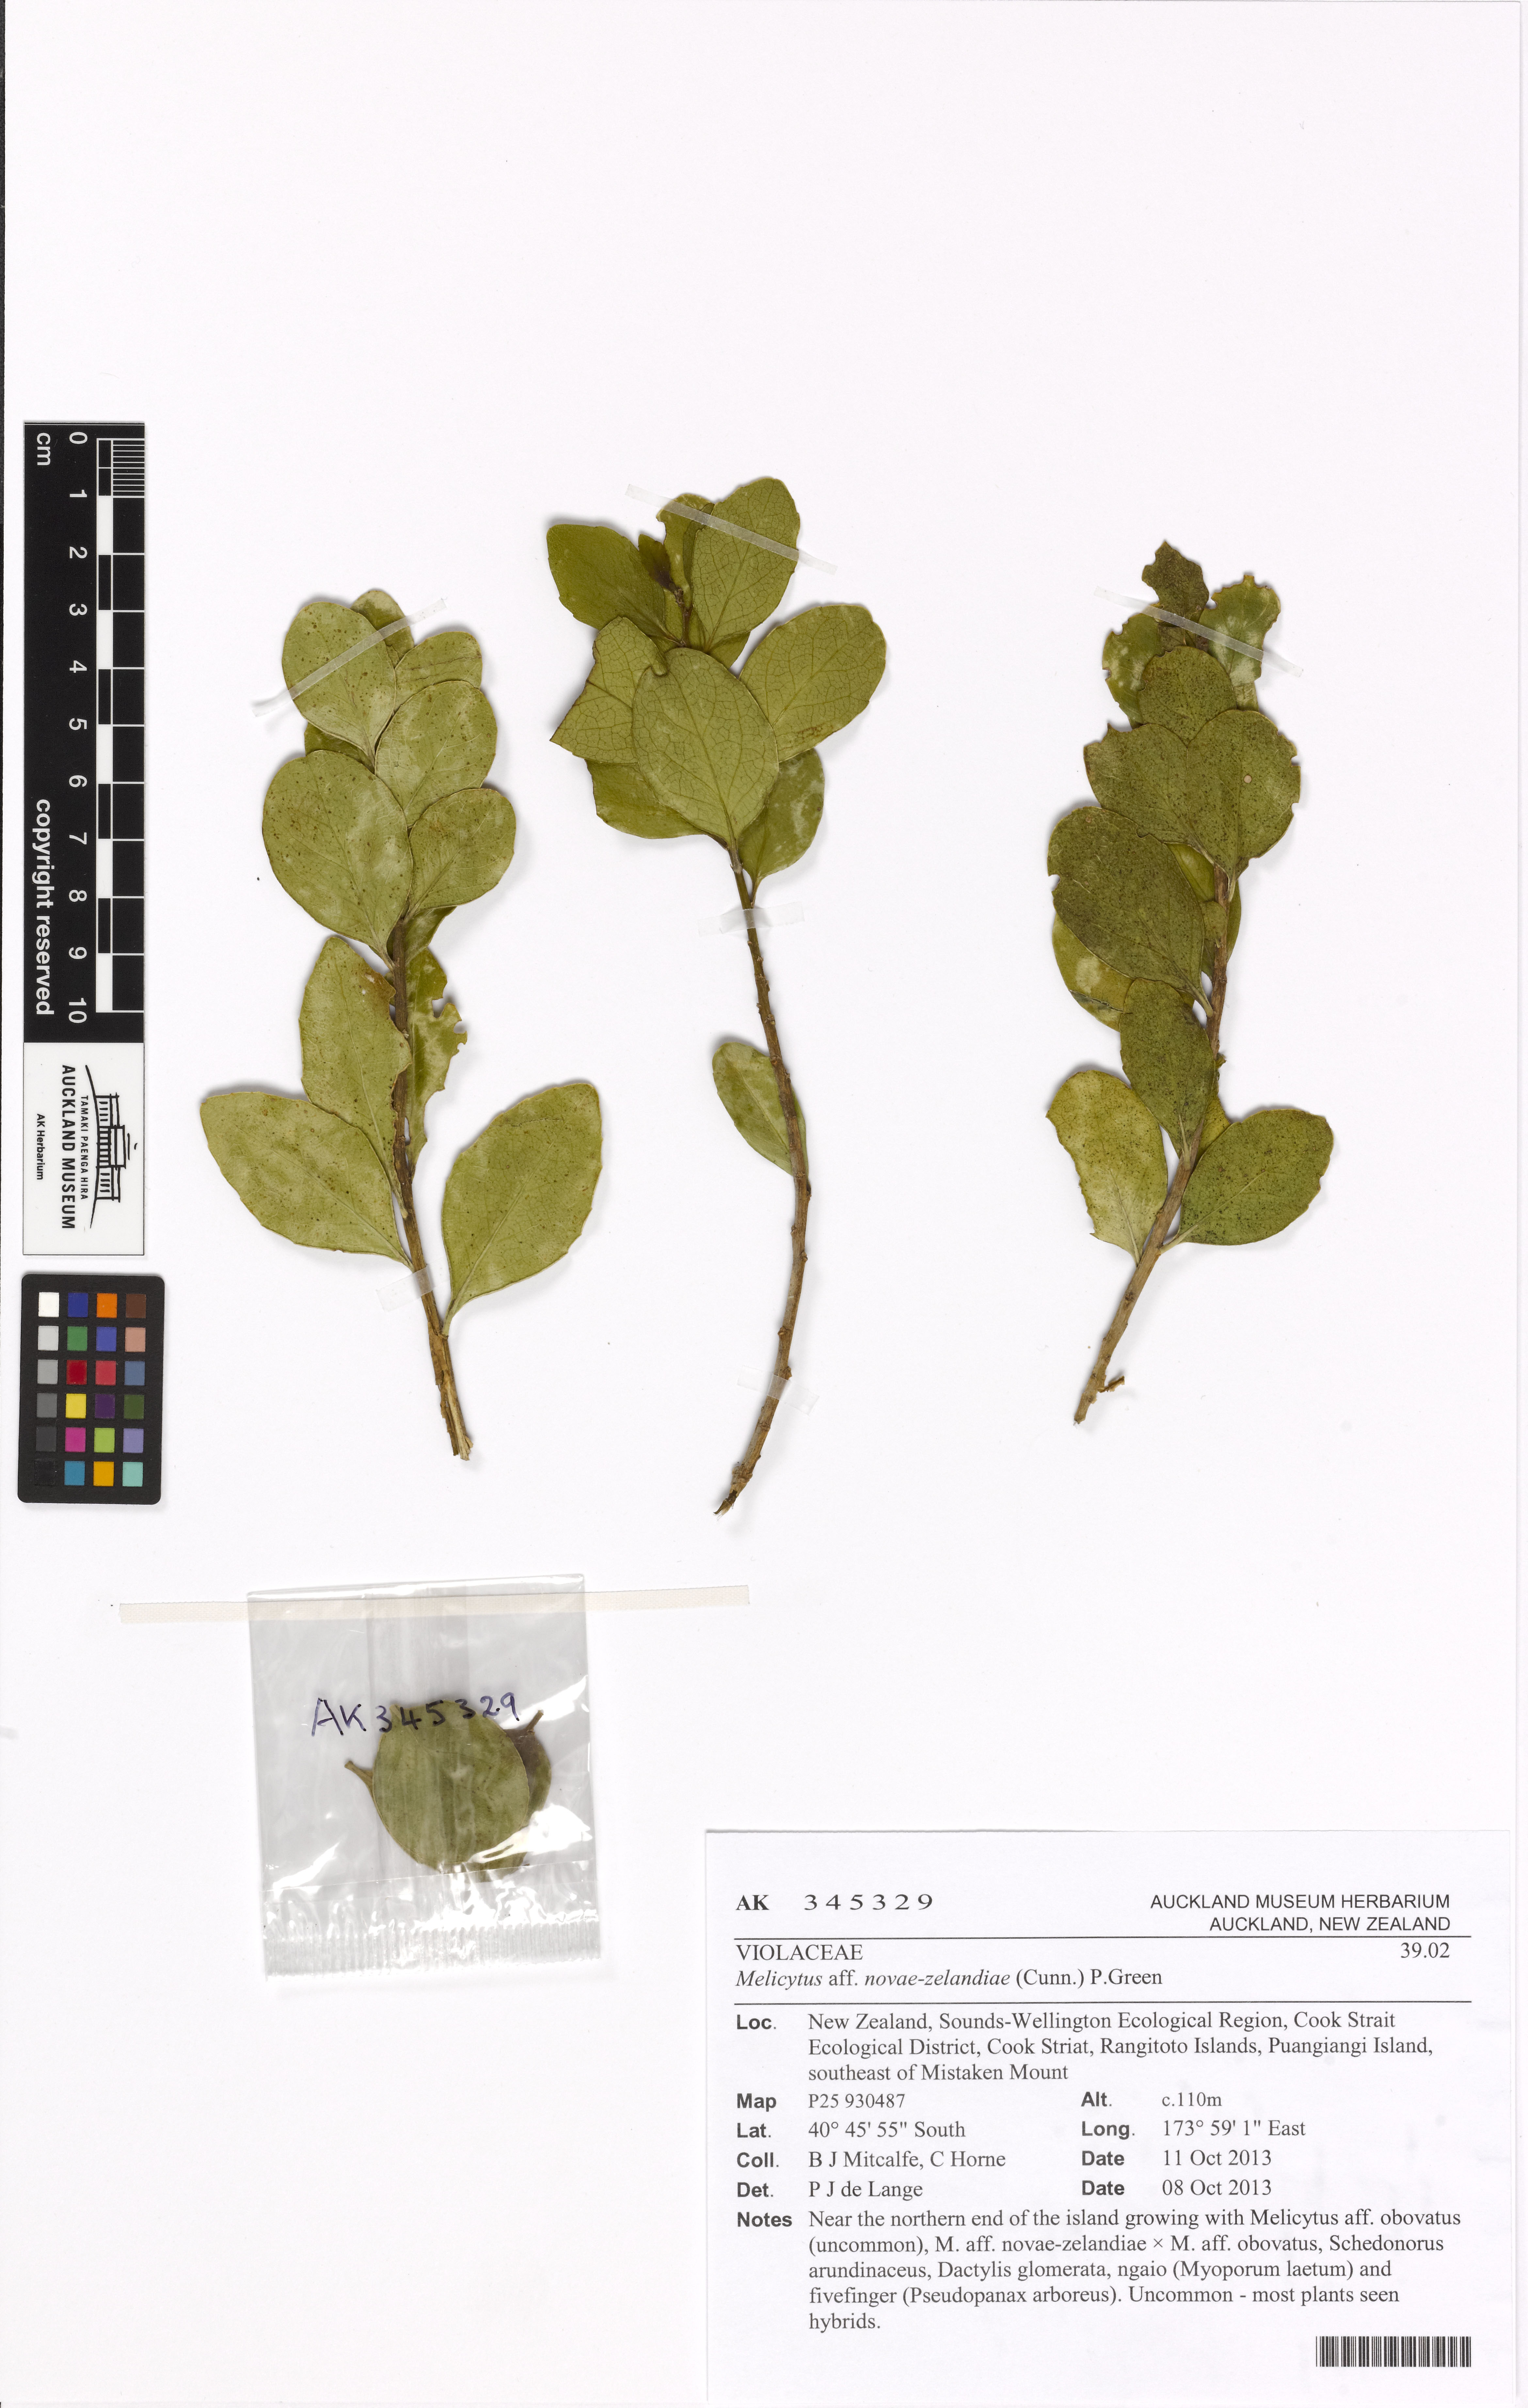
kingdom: Plantae
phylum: Tracheophyta
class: Magnoliopsida
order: Malpighiales
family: Violaceae
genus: Melicytus
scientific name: Melicytus novae-zelandiae
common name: Coastal mahoe
